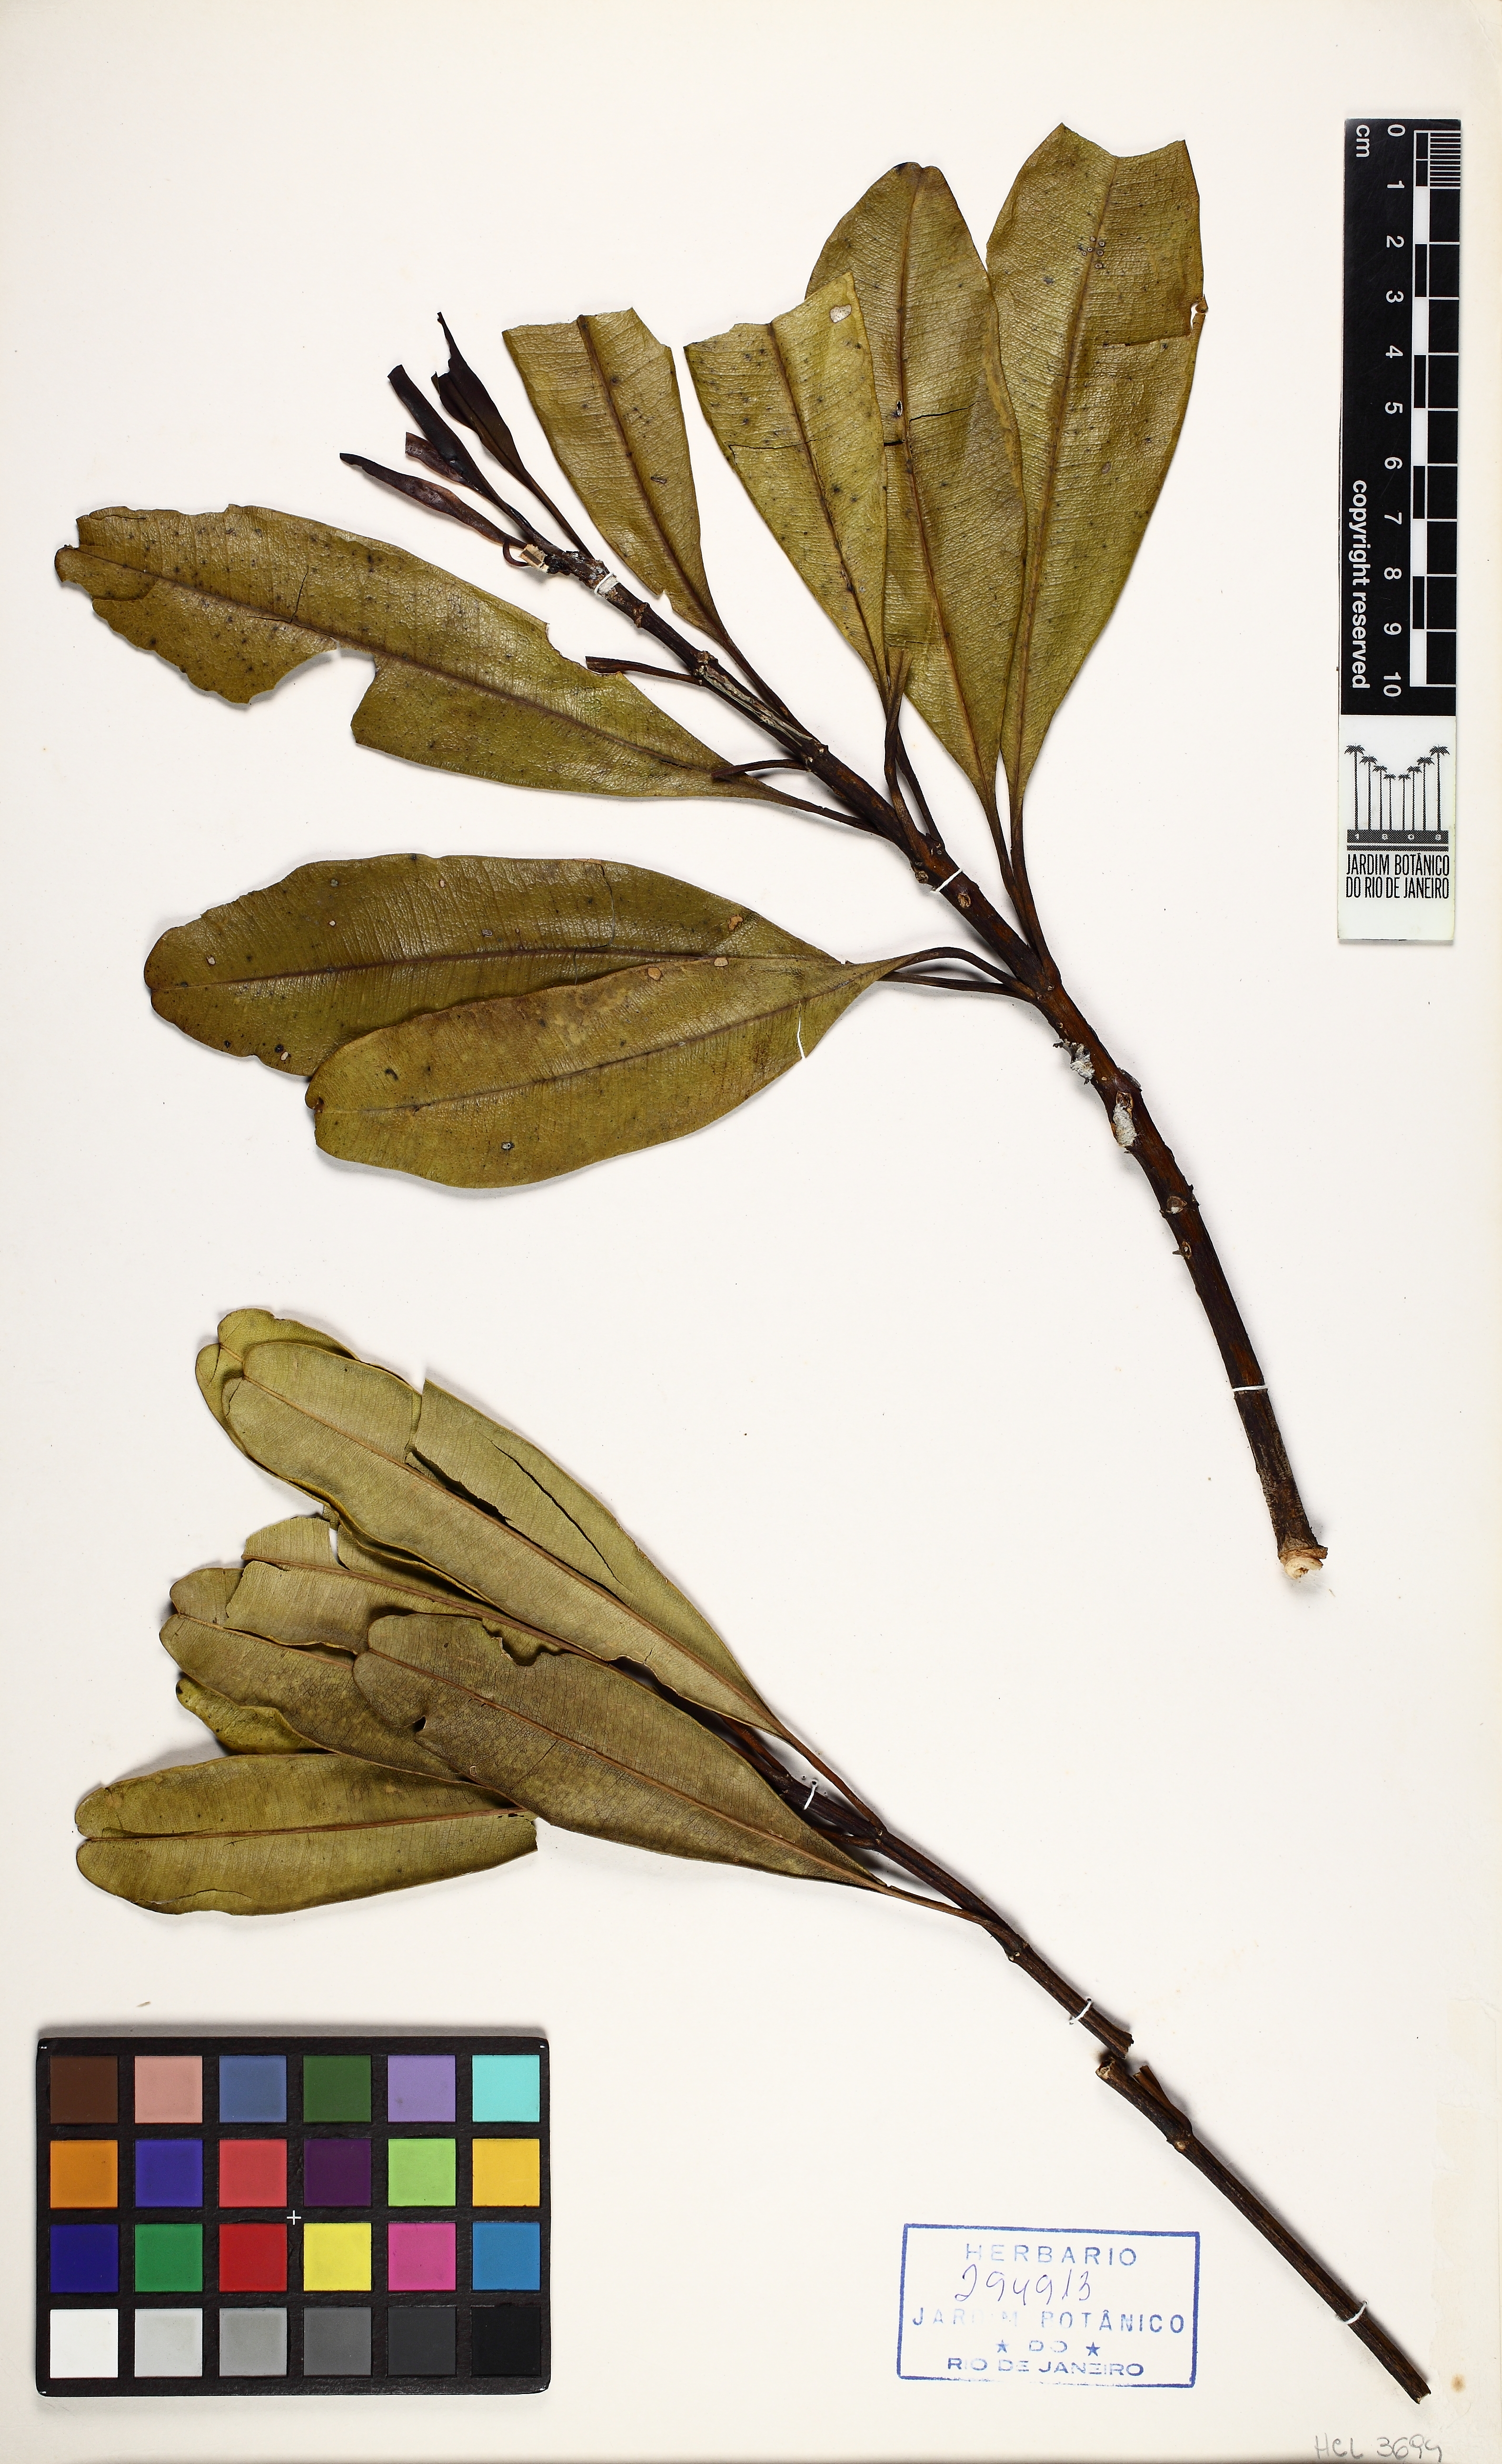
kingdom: Plantae
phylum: Tracheophyta
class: Magnoliopsida
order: Myrtales
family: Vochysiaceae
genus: Vochysia
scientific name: Vochysia oppugnata
